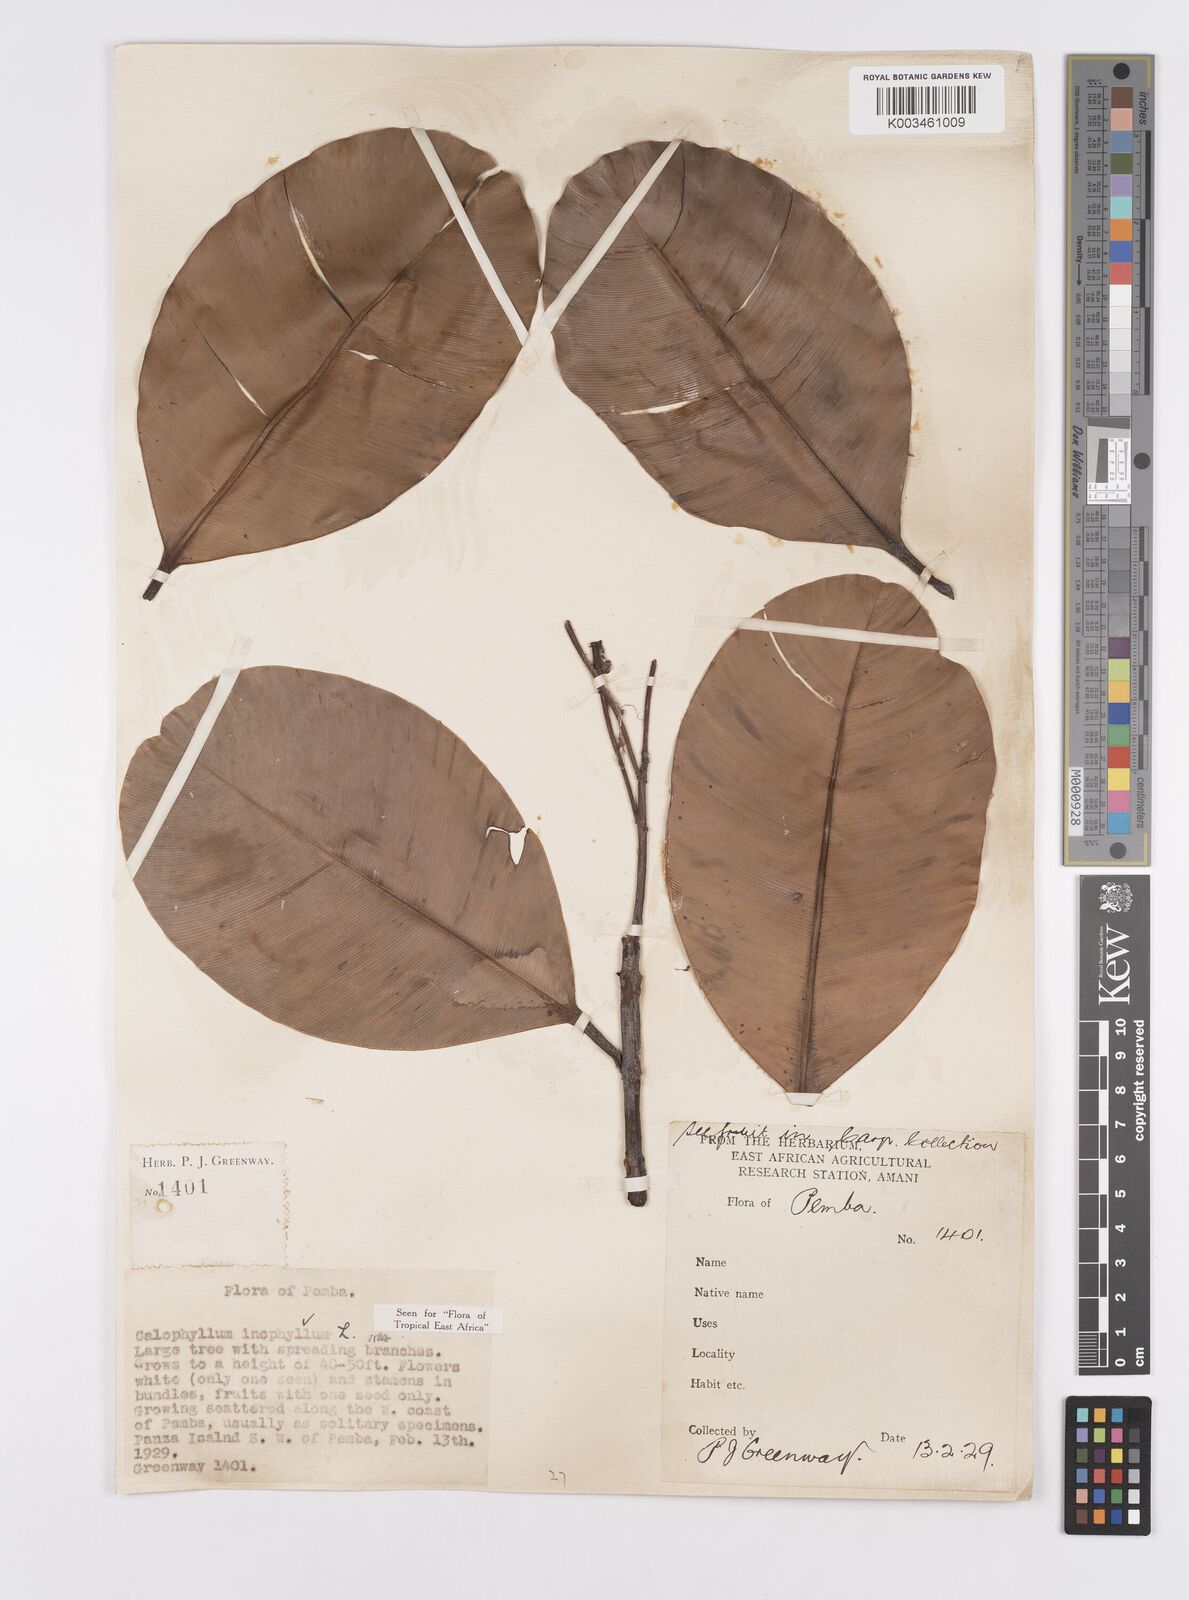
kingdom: Plantae
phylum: Tracheophyta
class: Magnoliopsida
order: Malpighiales
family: Calophyllaceae
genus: Calophyllum
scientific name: Calophyllum inophyllum
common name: Alexandrian laurel
